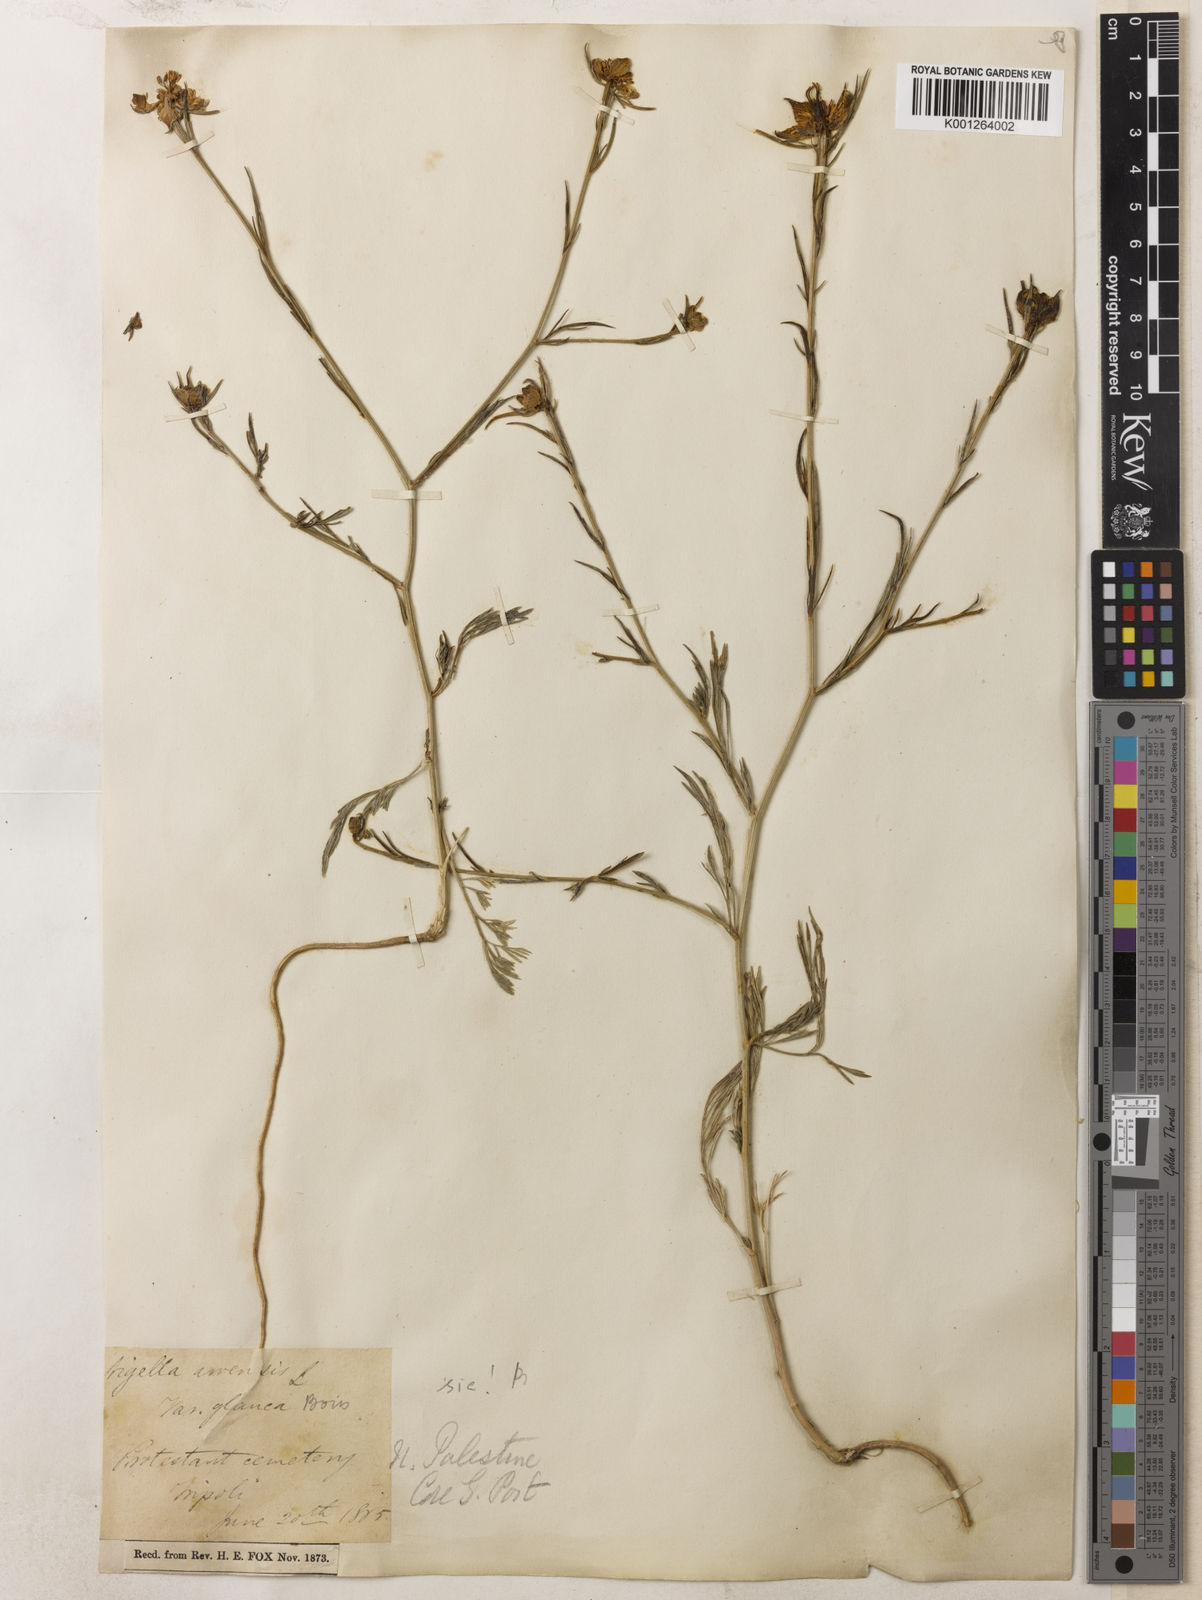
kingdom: Plantae
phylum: Tracheophyta
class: Magnoliopsida
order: Ranunculales
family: Ranunculaceae
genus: Nigella
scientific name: Nigella arvensis
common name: Wild fennel-flower
